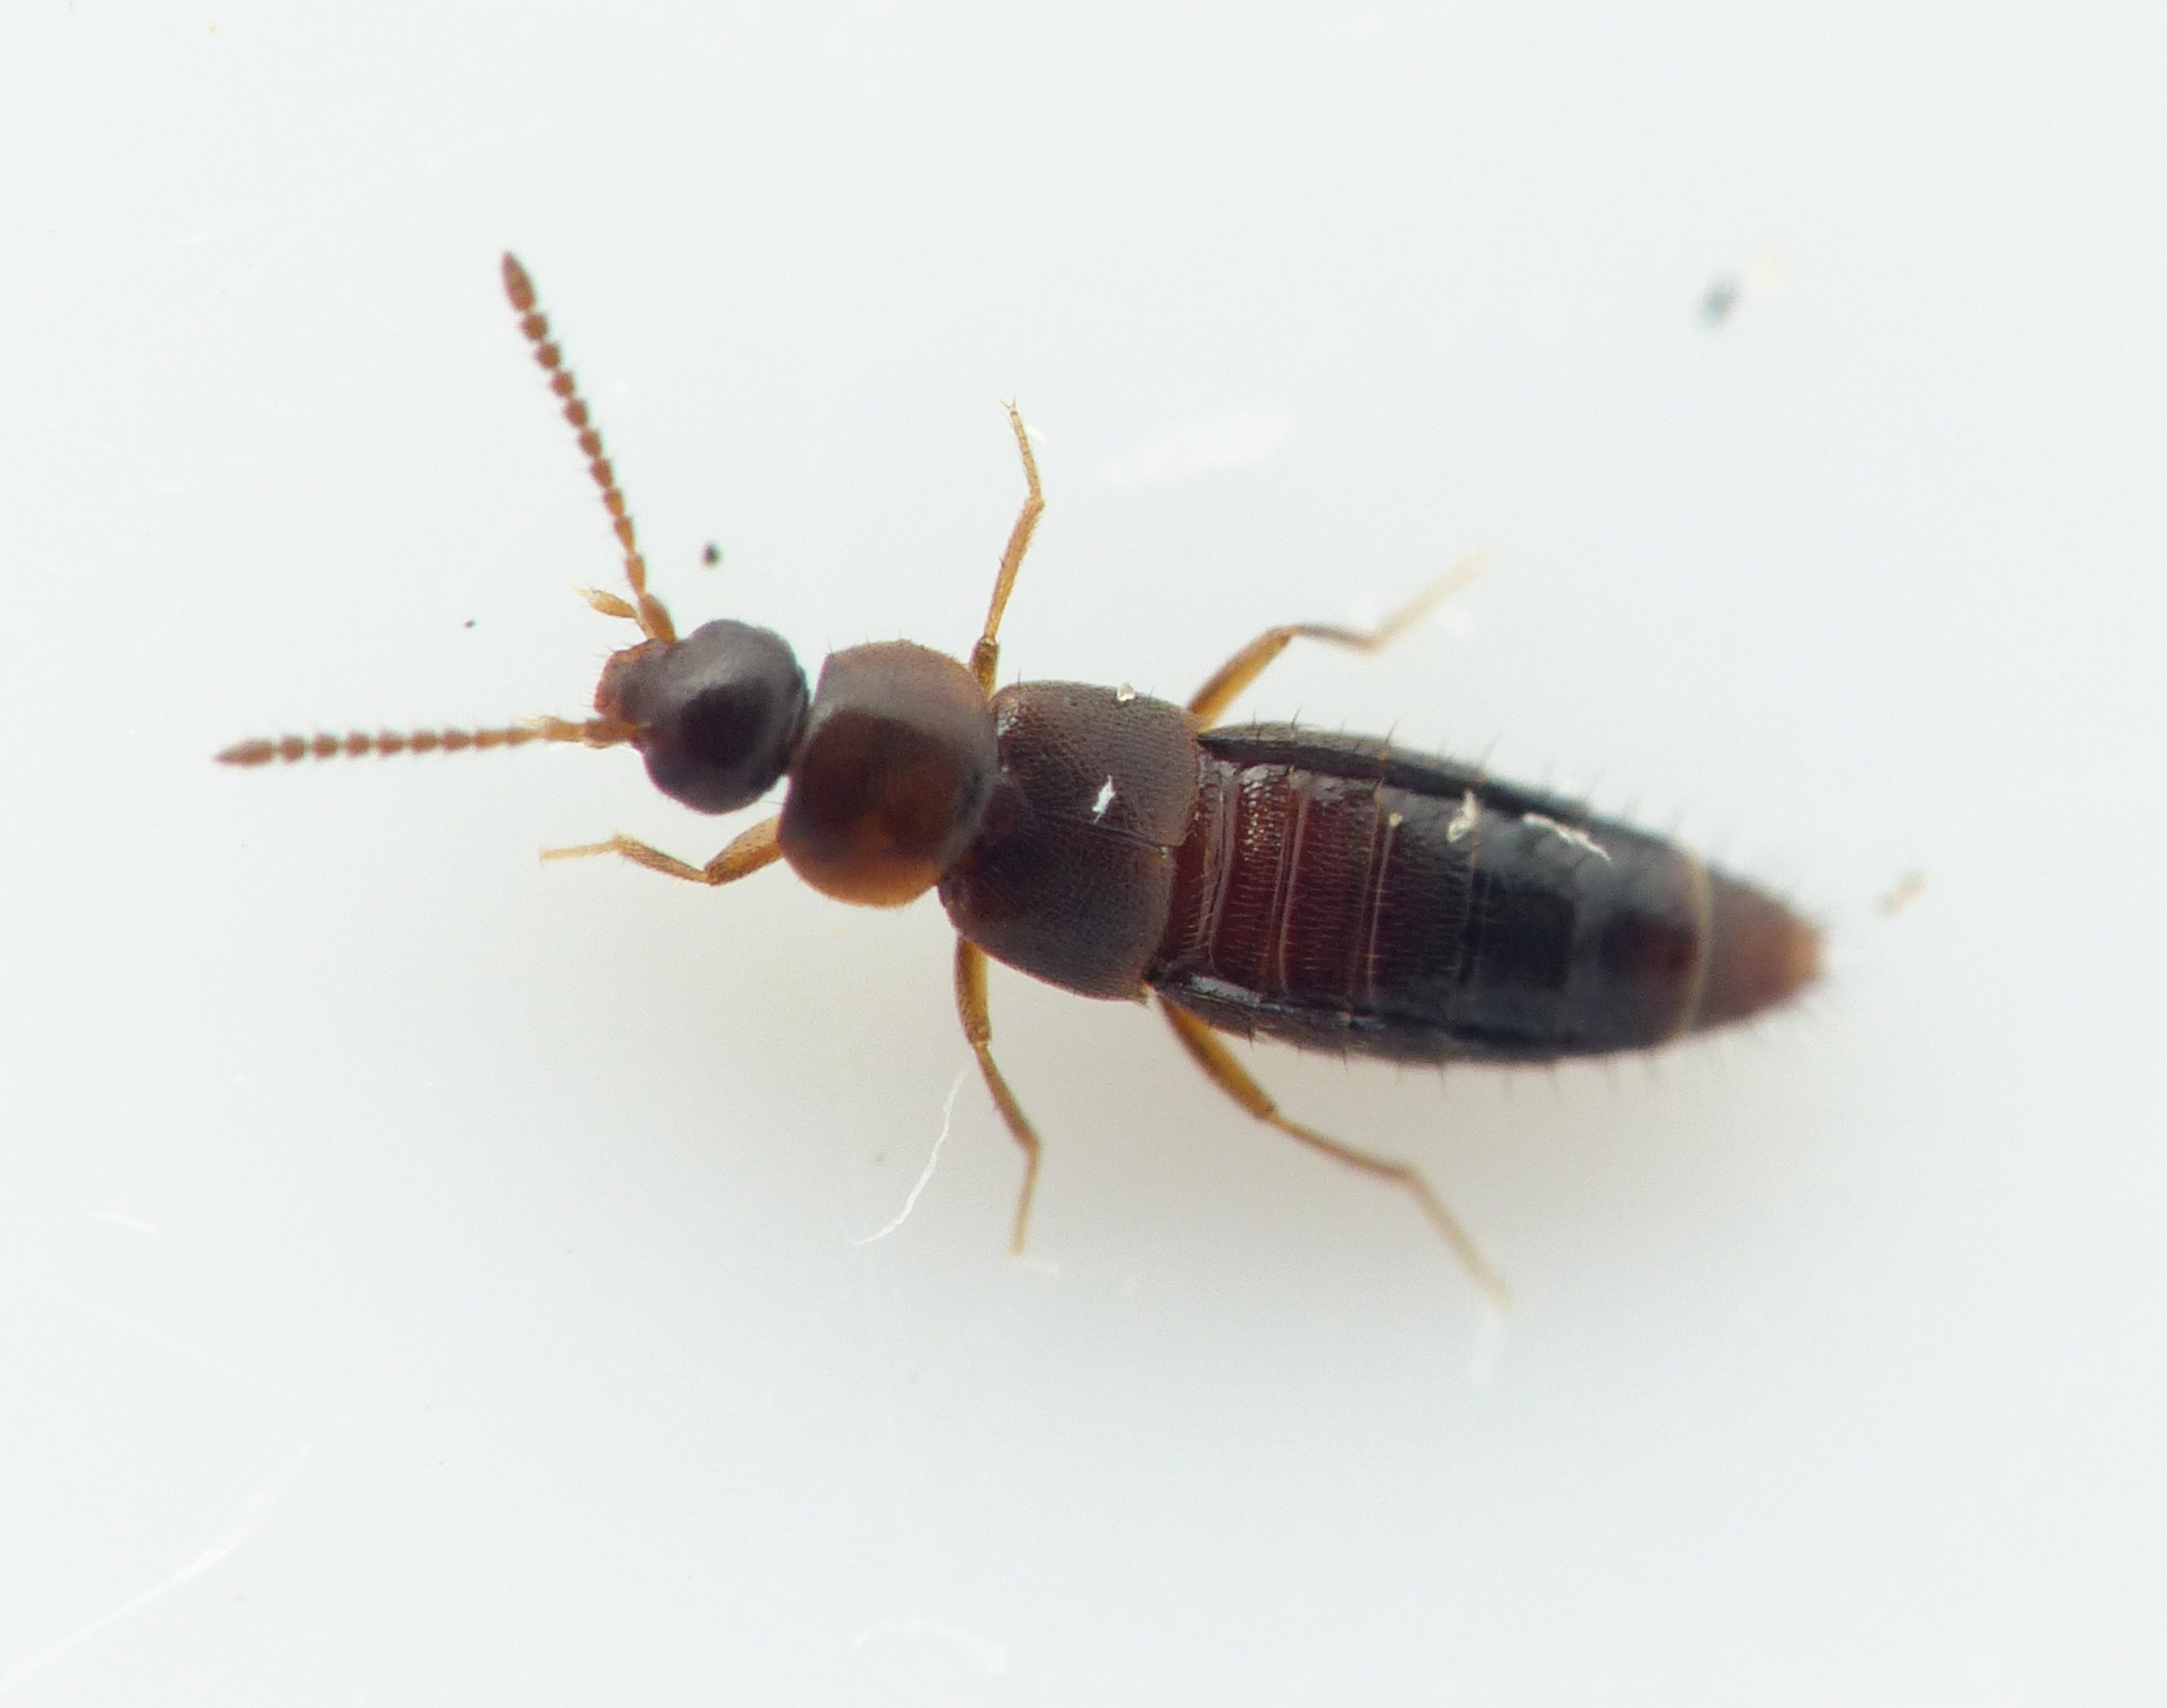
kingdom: Animalia
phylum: Arthropoda
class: Insecta
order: Coleoptera
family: Staphylinidae
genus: Mocyta
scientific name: Mocyta negligens
